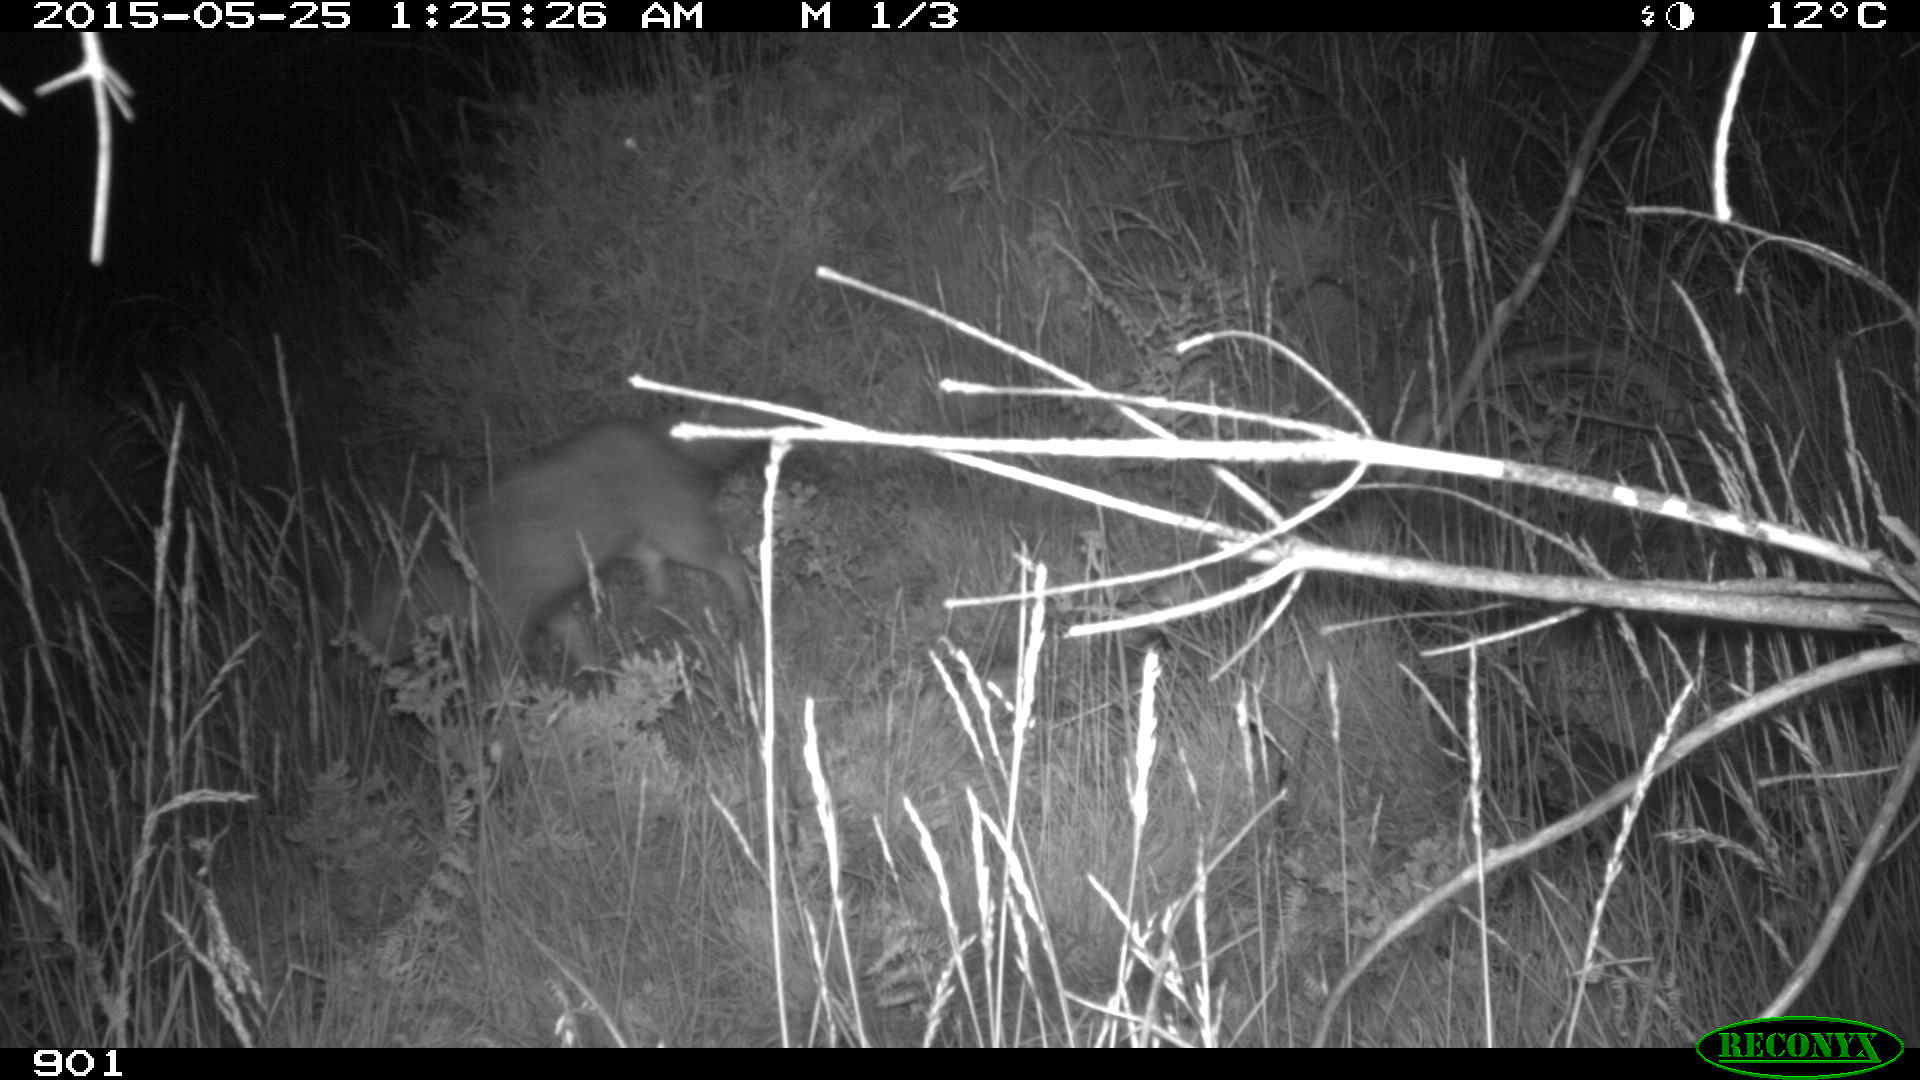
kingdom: Animalia
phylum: Chordata
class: Mammalia
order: Carnivora
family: Canidae
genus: Vulpes
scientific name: Vulpes vulpes
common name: Red fox
